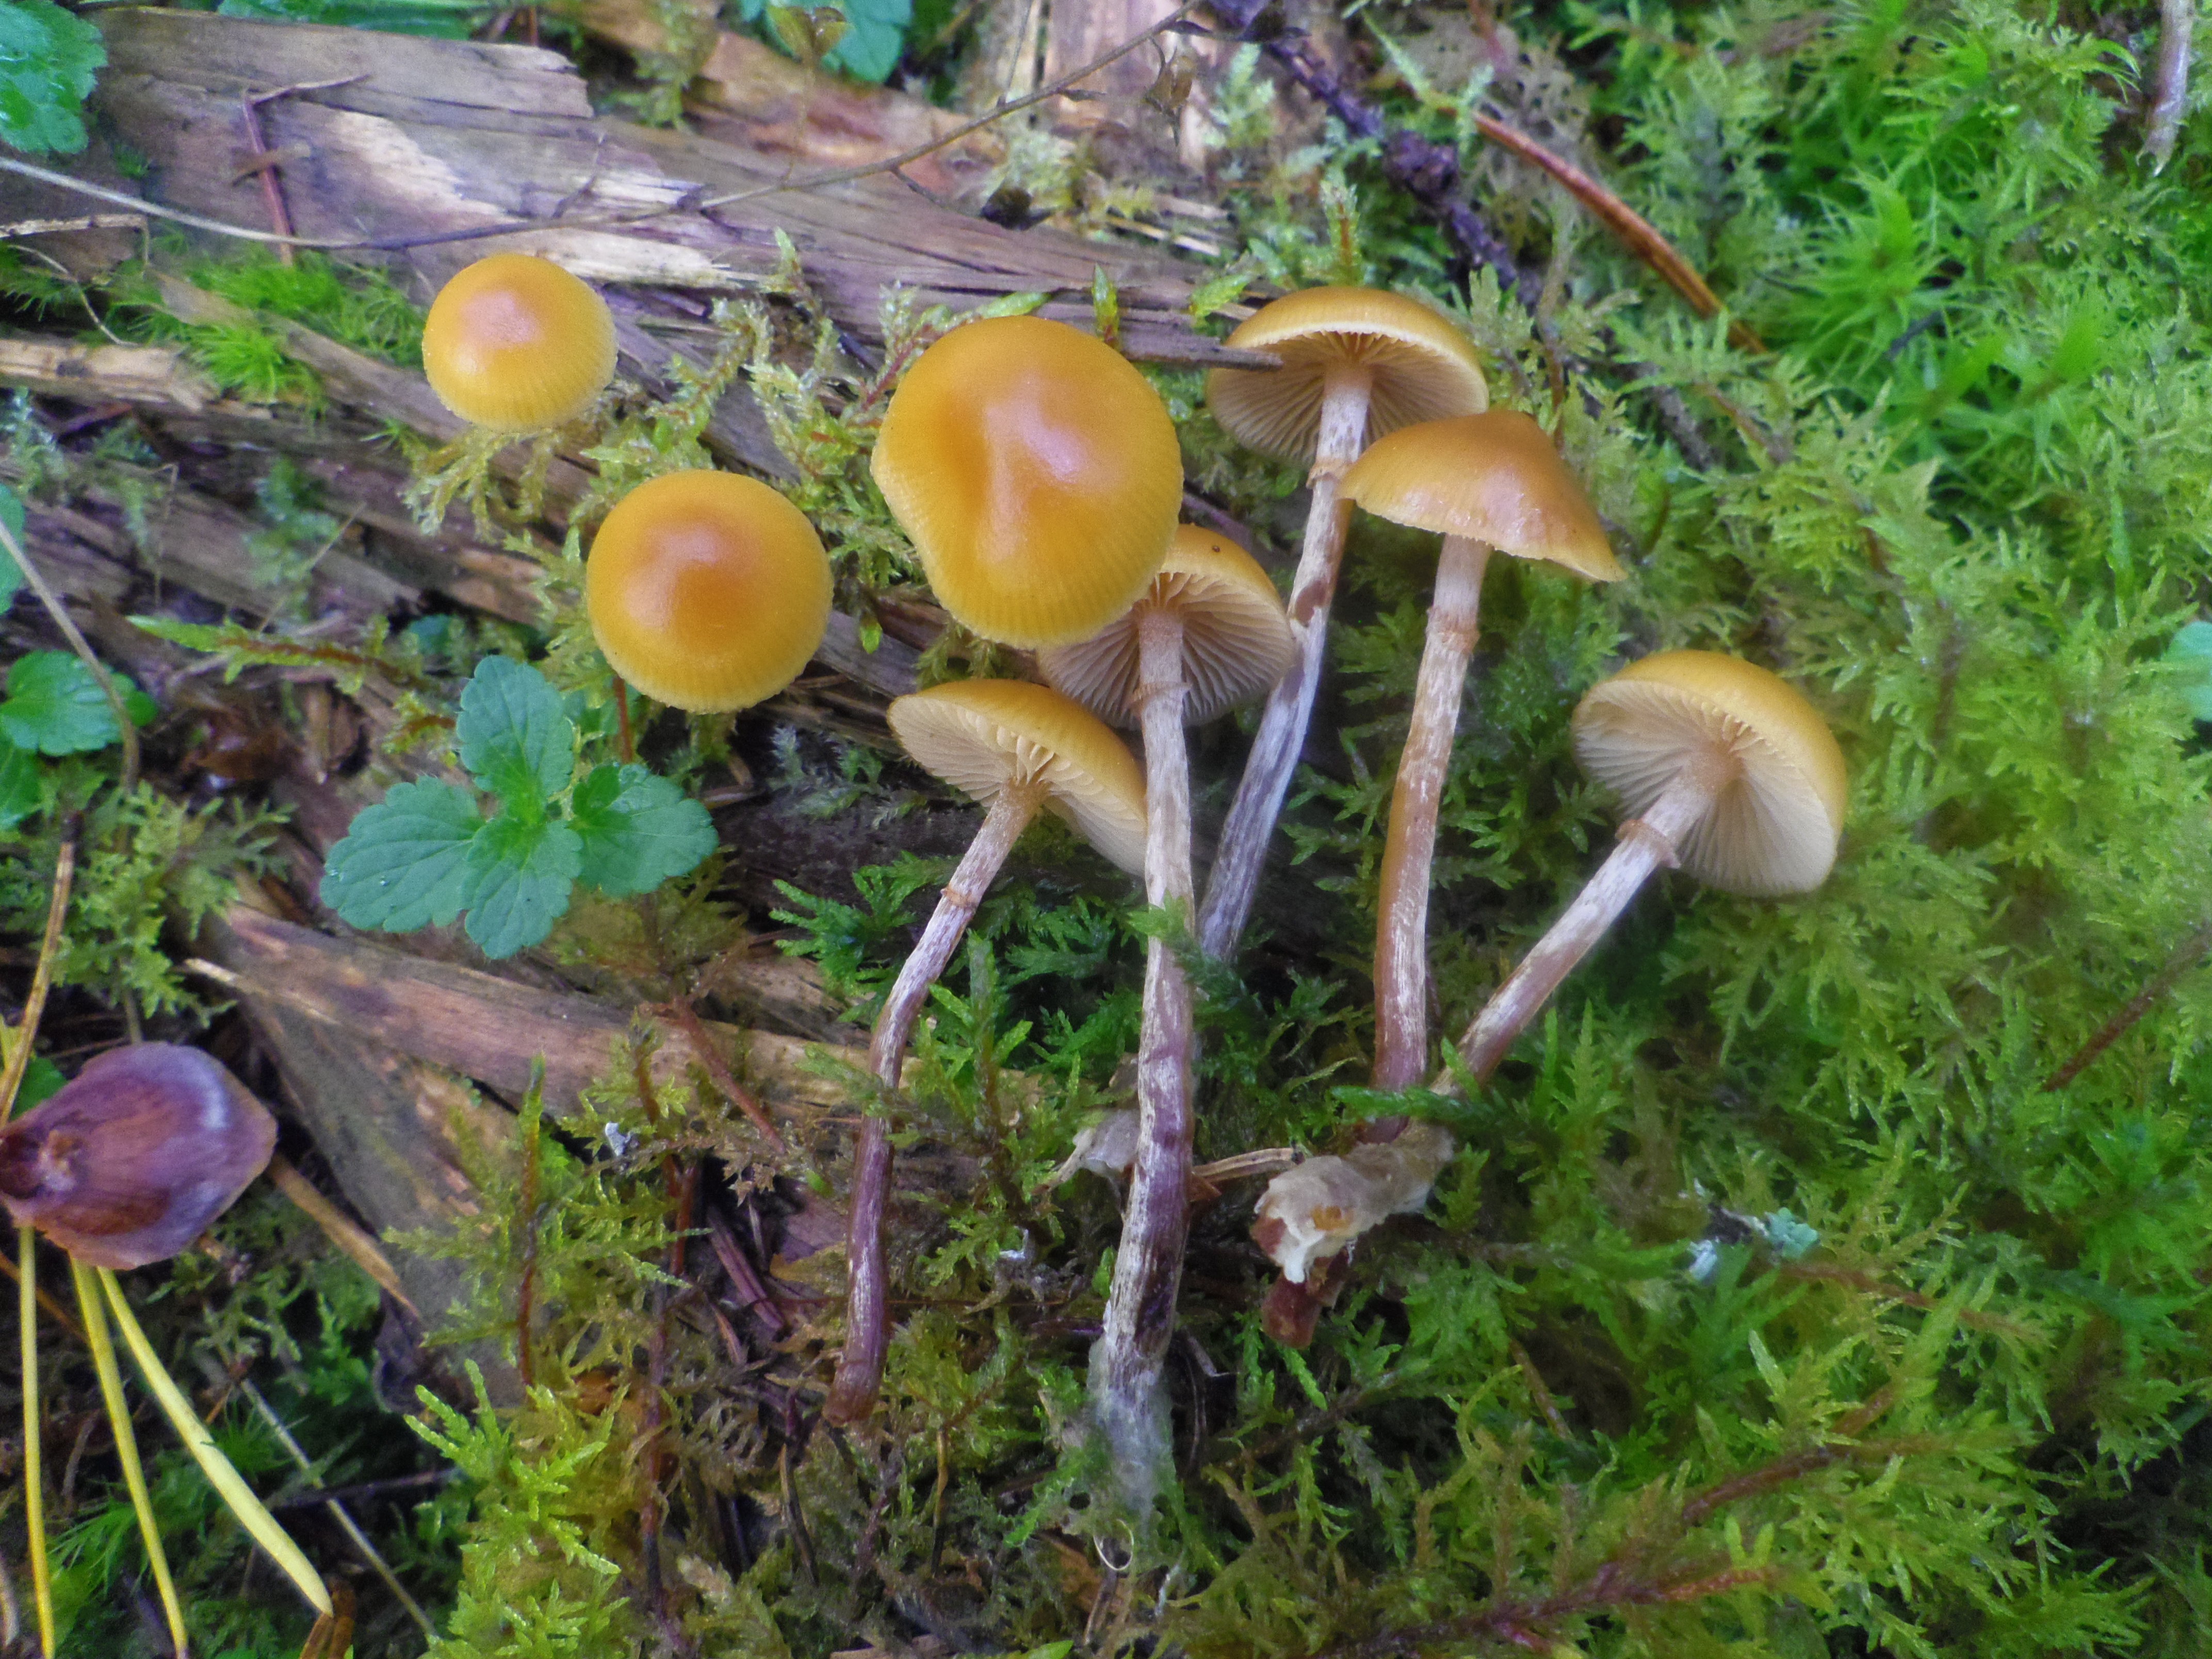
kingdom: Fungi
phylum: Basidiomycota
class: Agaricomycetes
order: Agaricales
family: Hymenogastraceae
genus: Galerina
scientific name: Galerina marginata
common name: Funeral bell
